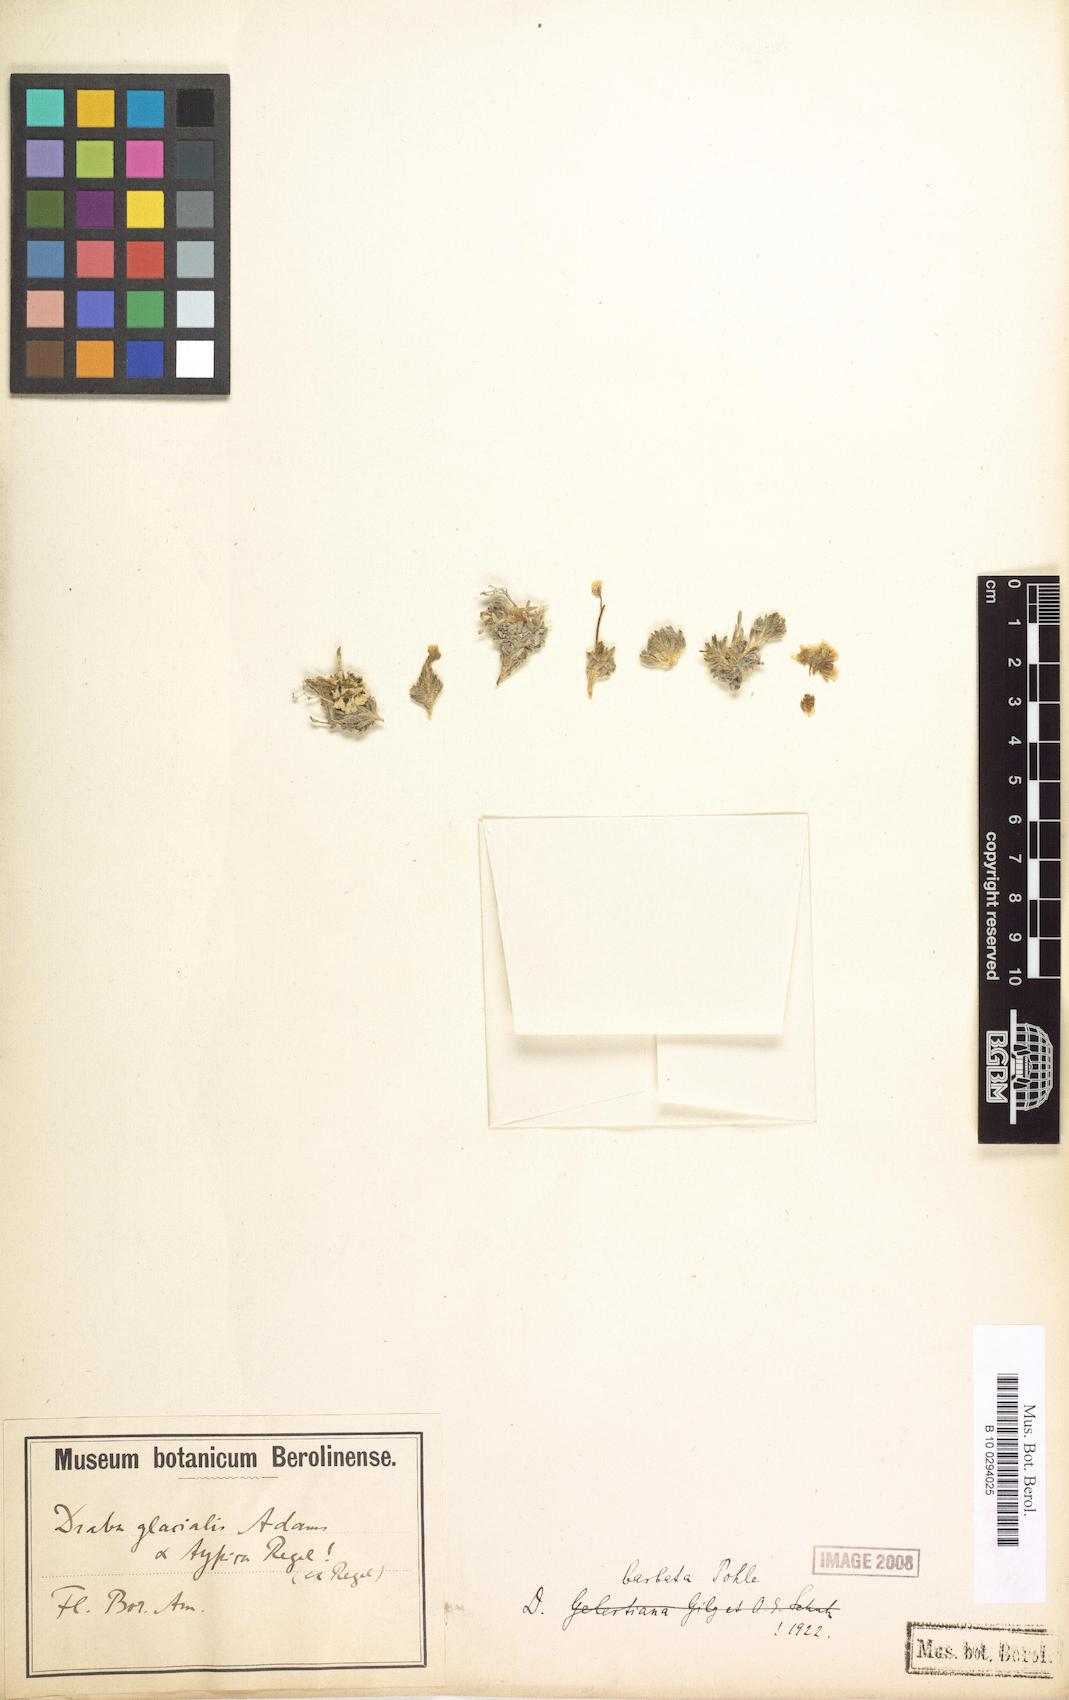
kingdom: Plantae
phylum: Tracheophyta
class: Magnoliopsida
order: Brassicales
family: Brassicaceae
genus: Draba
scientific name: Draba corymbosa
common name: Cushion whitlow-grass
